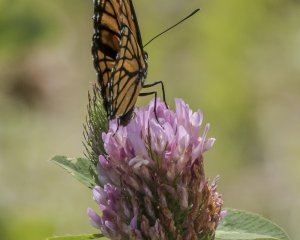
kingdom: Animalia
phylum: Arthropoda
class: Insecta
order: Lepidoptera
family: Nymphalidae
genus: Limenitis
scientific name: Limenitis archippus
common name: Viceroy
